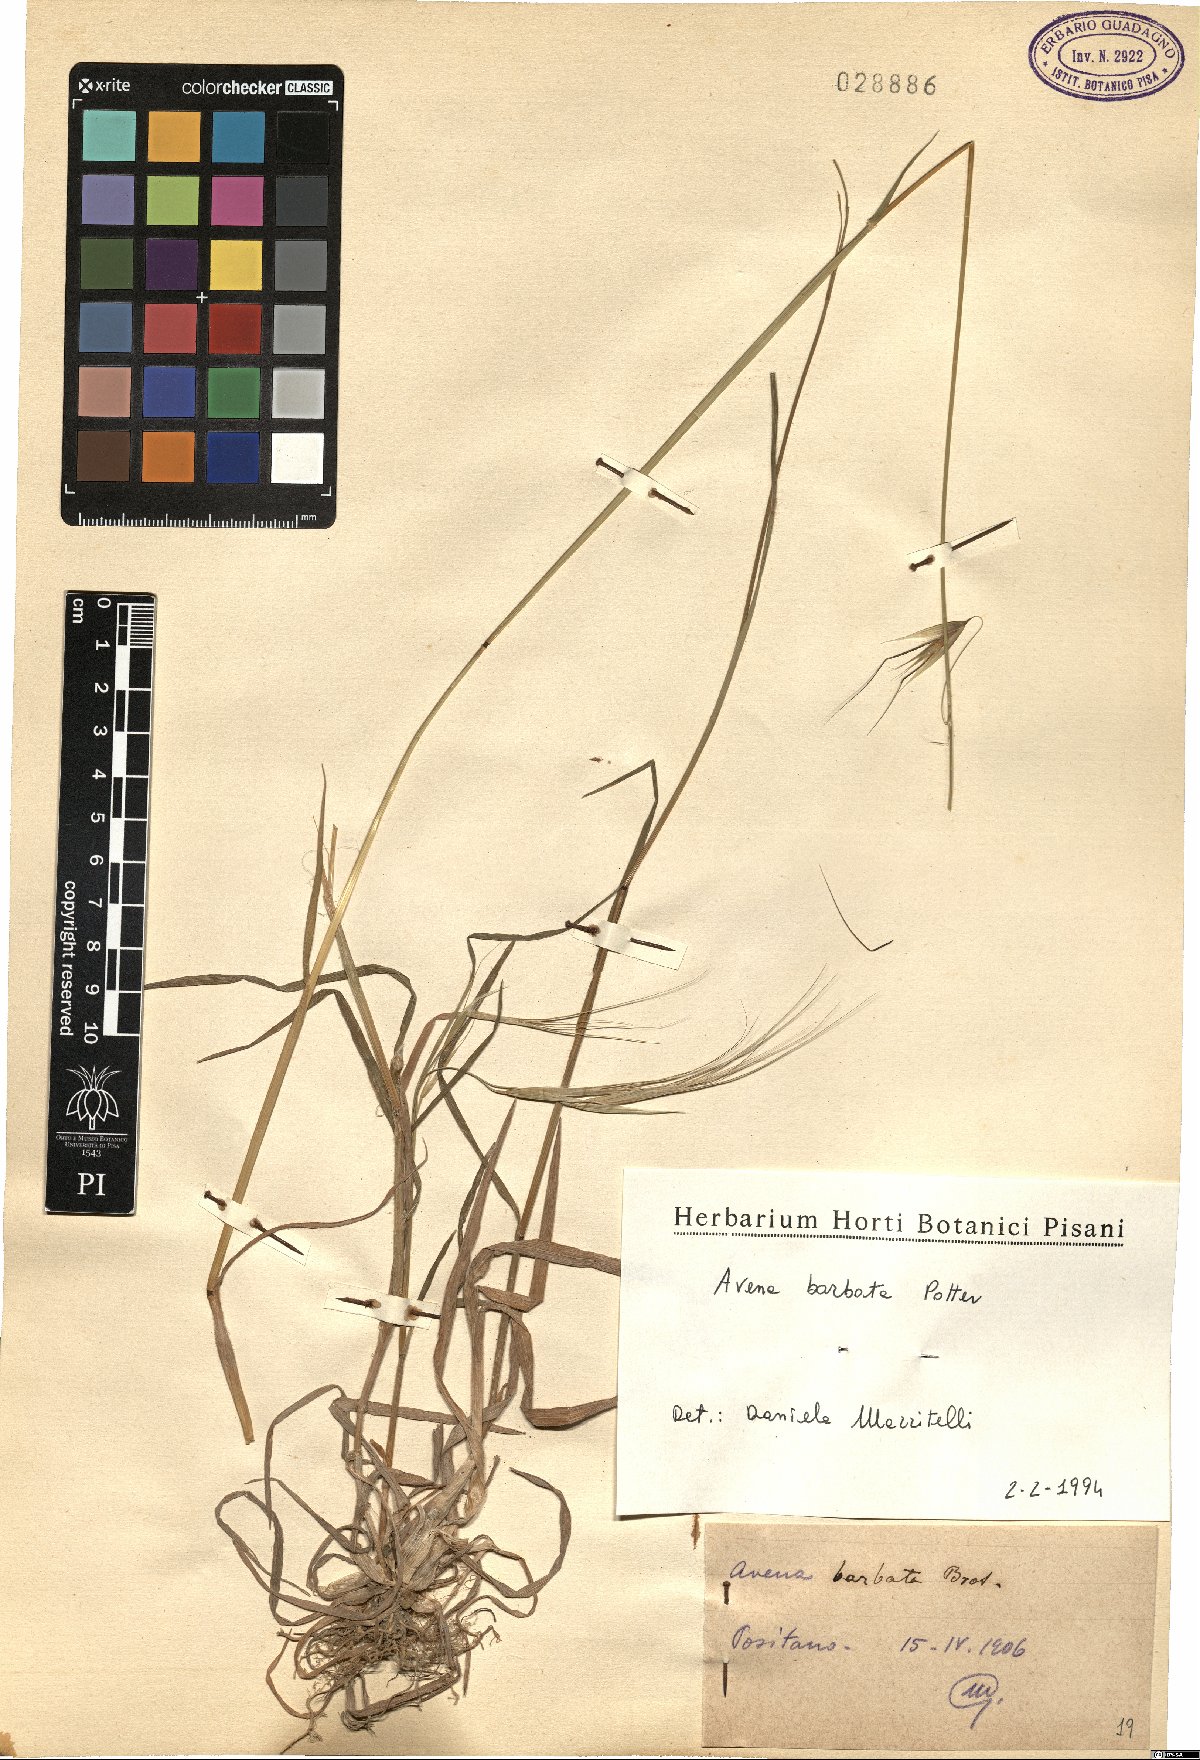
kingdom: Plantae
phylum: Tracheophyta
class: Liliopsida
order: Poales
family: Poaceae
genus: Avena
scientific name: Avena barbata
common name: Slender oat
